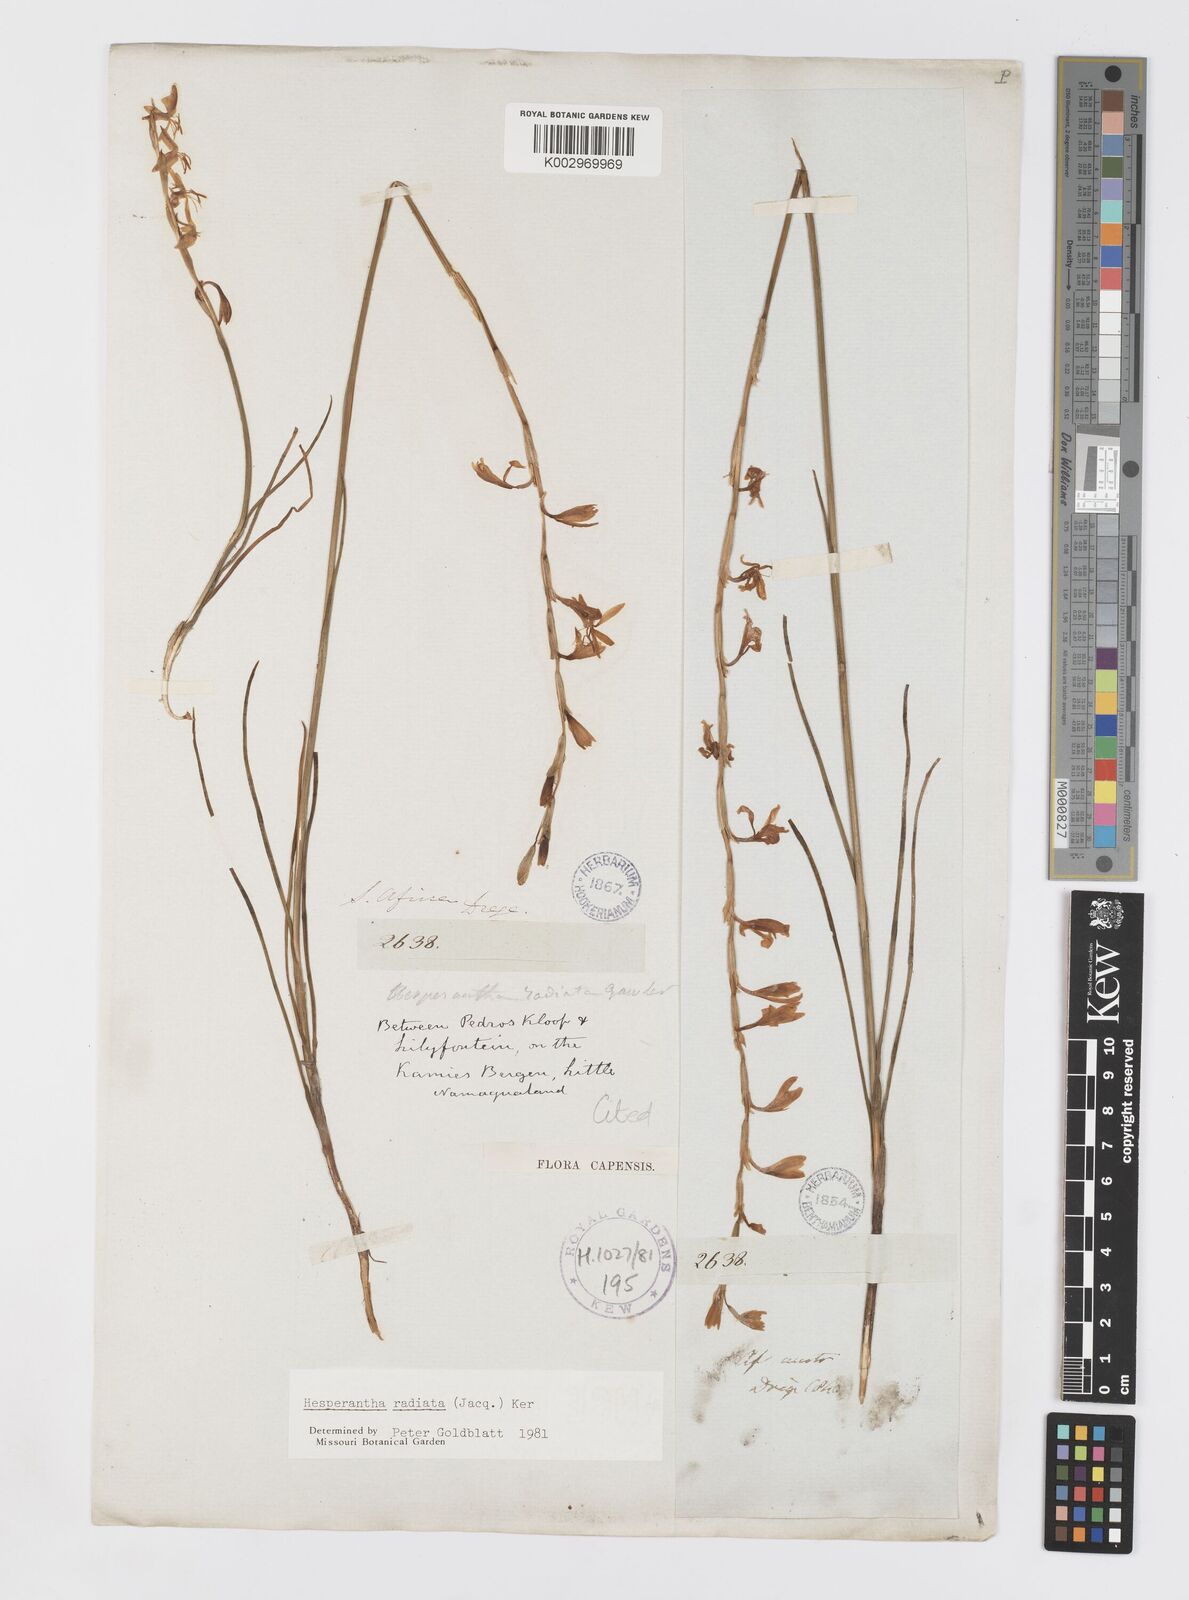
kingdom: Plantae
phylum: Tracheophyta
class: Liliopsida
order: Asparagales
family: Iridaceae
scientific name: Iridaceae
